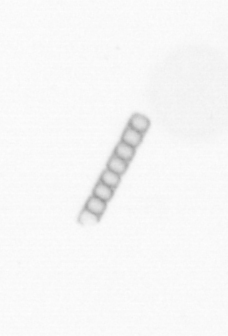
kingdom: Chromista
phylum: Ochrophyta
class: Bacillariophyceae
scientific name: Bacillariophyceae
